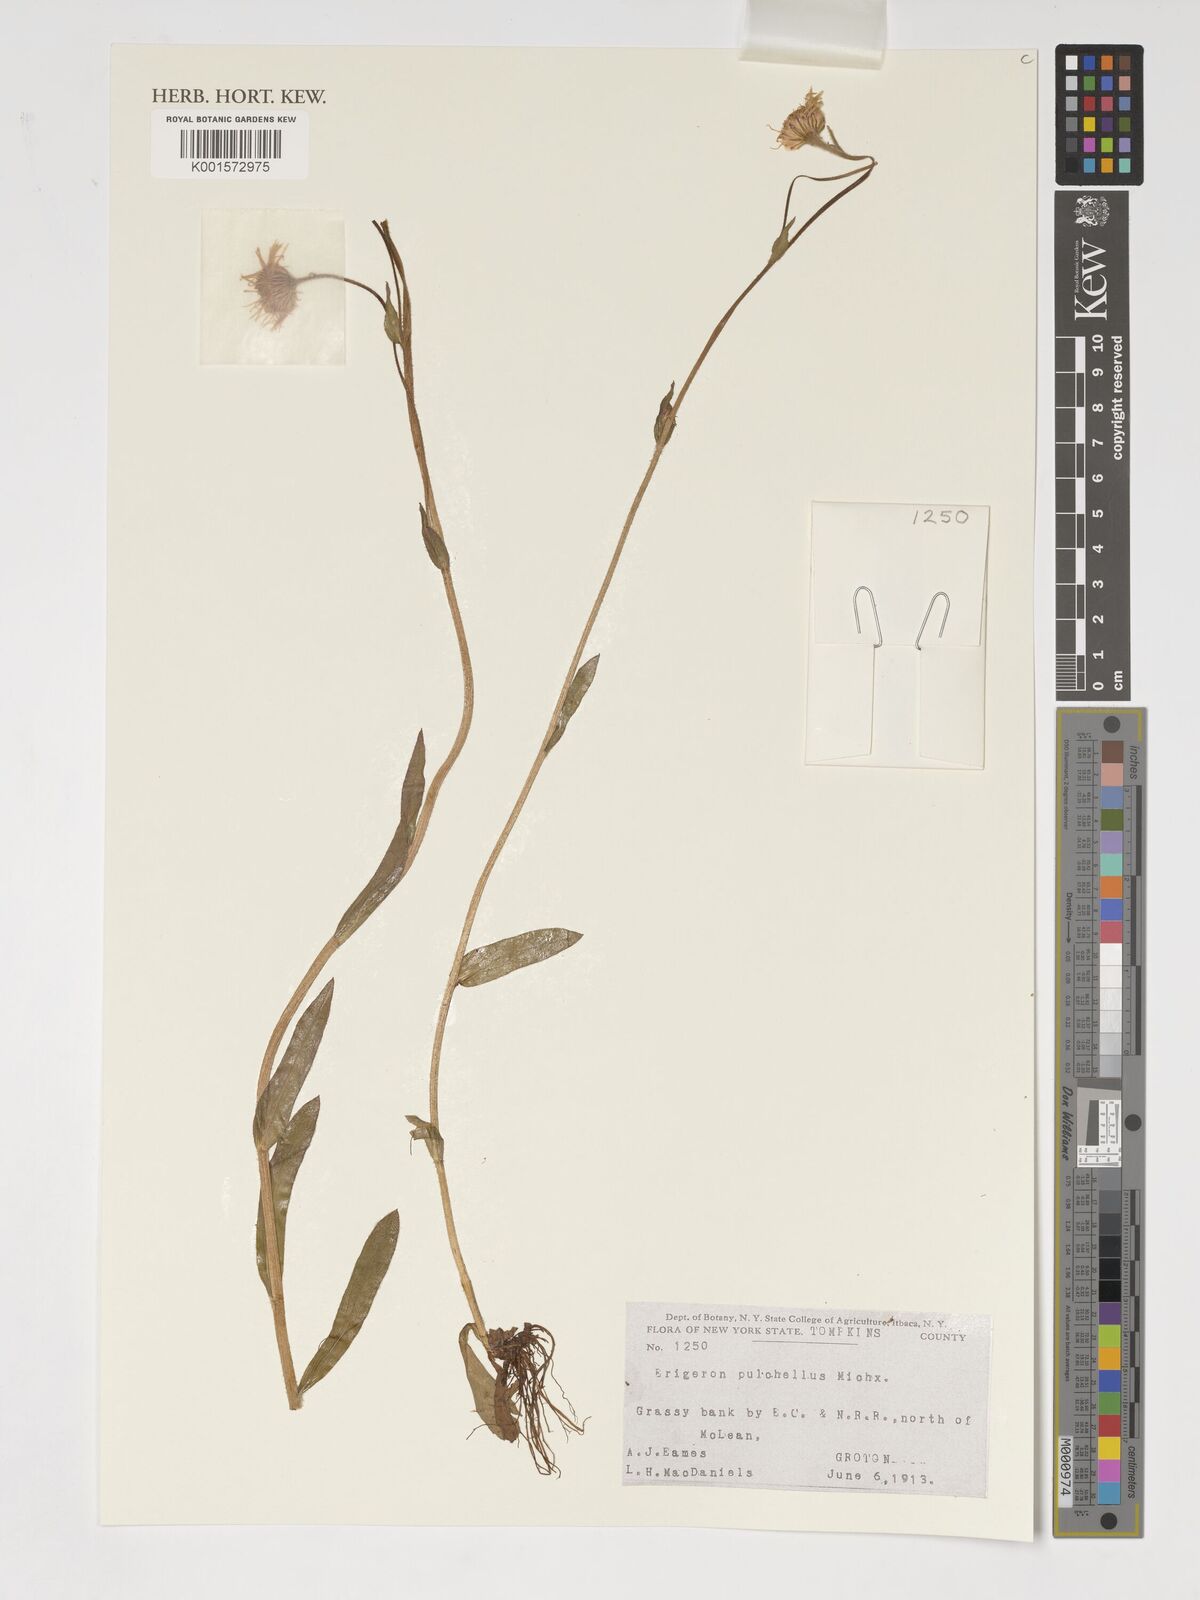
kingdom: Plantae
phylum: Tracheophyta
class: Magnoliopsida
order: Asterales
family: Asteraceae
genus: Erigeron
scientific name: Erigeron pulchellus
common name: Hairy fleabane
